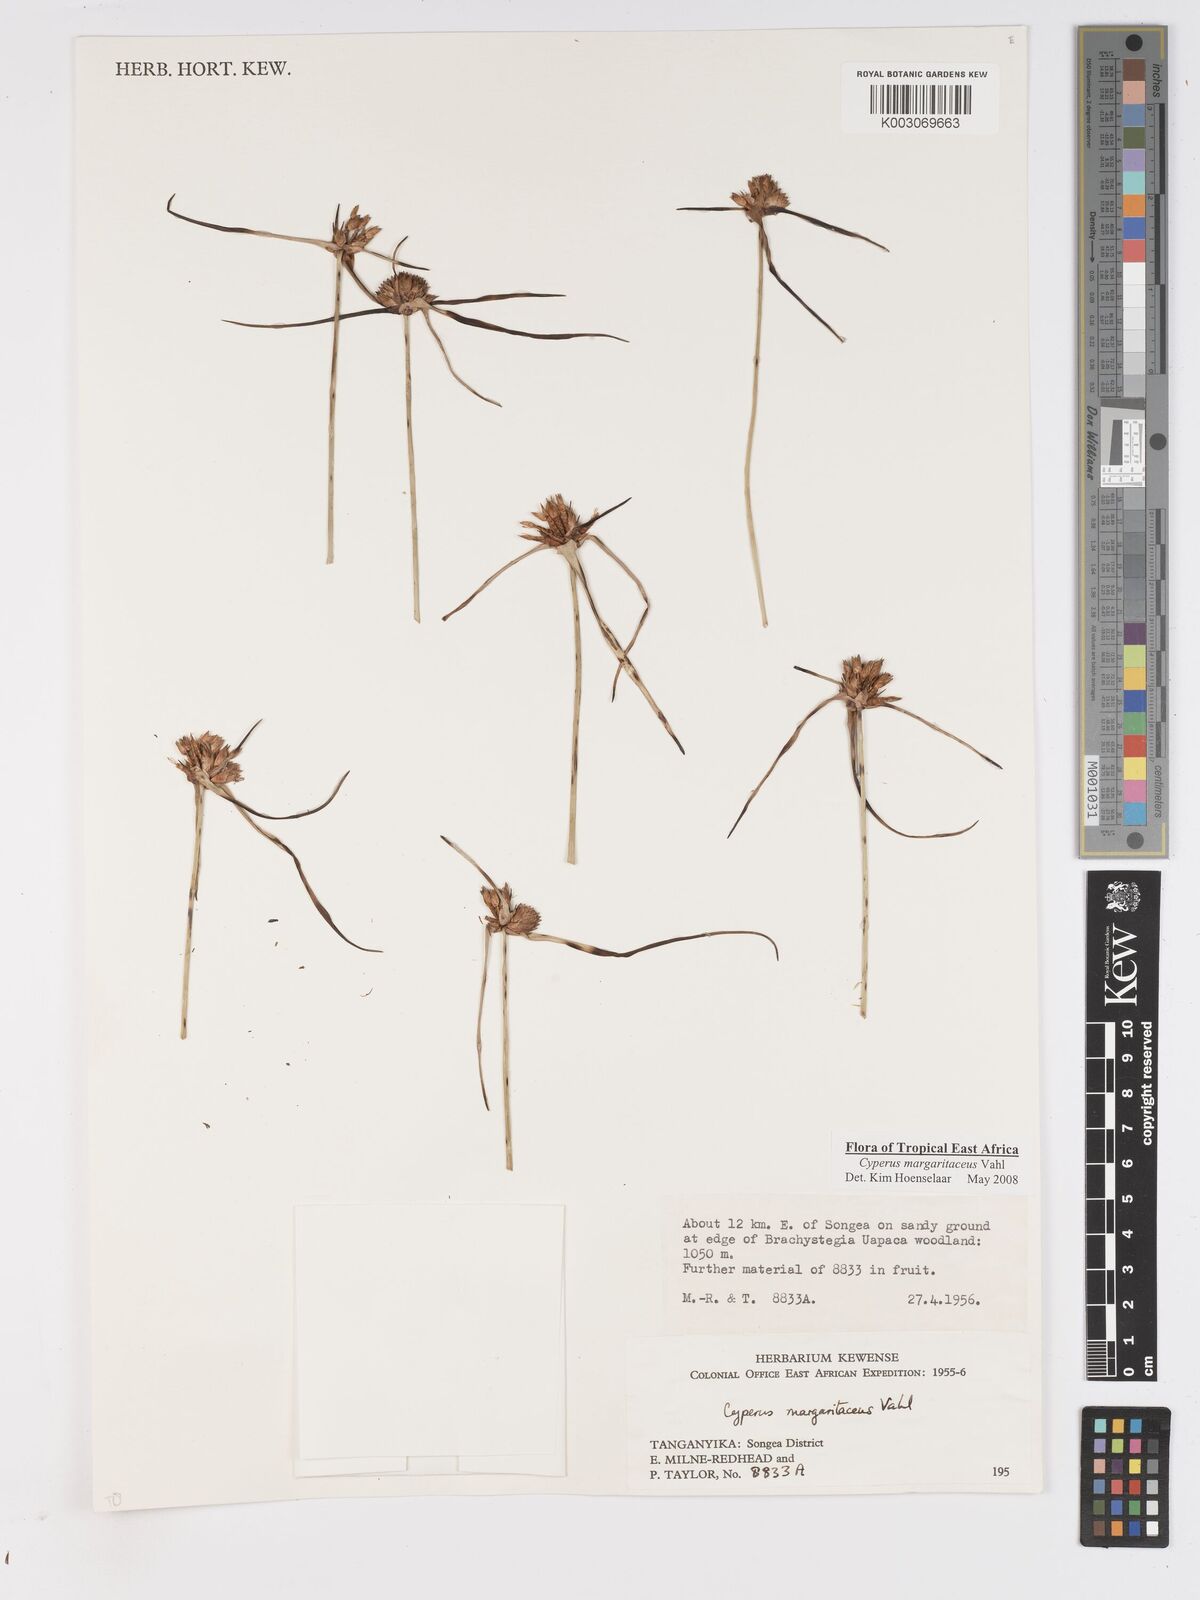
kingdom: Plantae
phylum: Tracheophyta
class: Liliopsida
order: Poales
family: Cyperaceae
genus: Cyperus
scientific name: Cyperus margaritaceus
